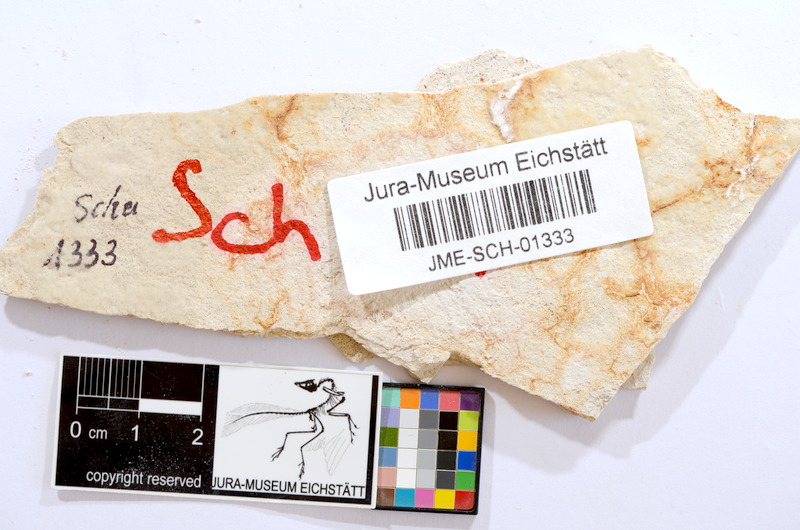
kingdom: Animalia
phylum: Chordata
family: Ascalaboidae
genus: Tharsis
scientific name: Tharsis dubius
